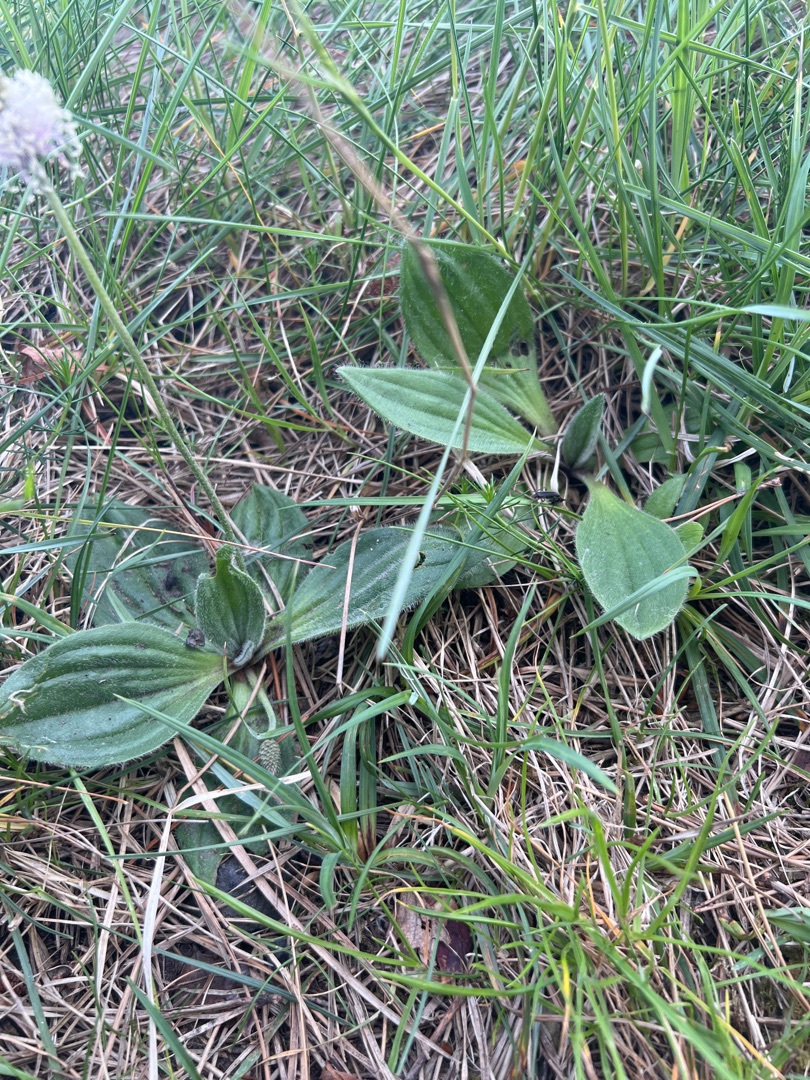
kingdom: Plantae
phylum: Tracheophyta
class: Magnoliopsida
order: Lamiales
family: Plantaginaceae
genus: Plantago
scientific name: Plantago media
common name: Dunet vejbred
